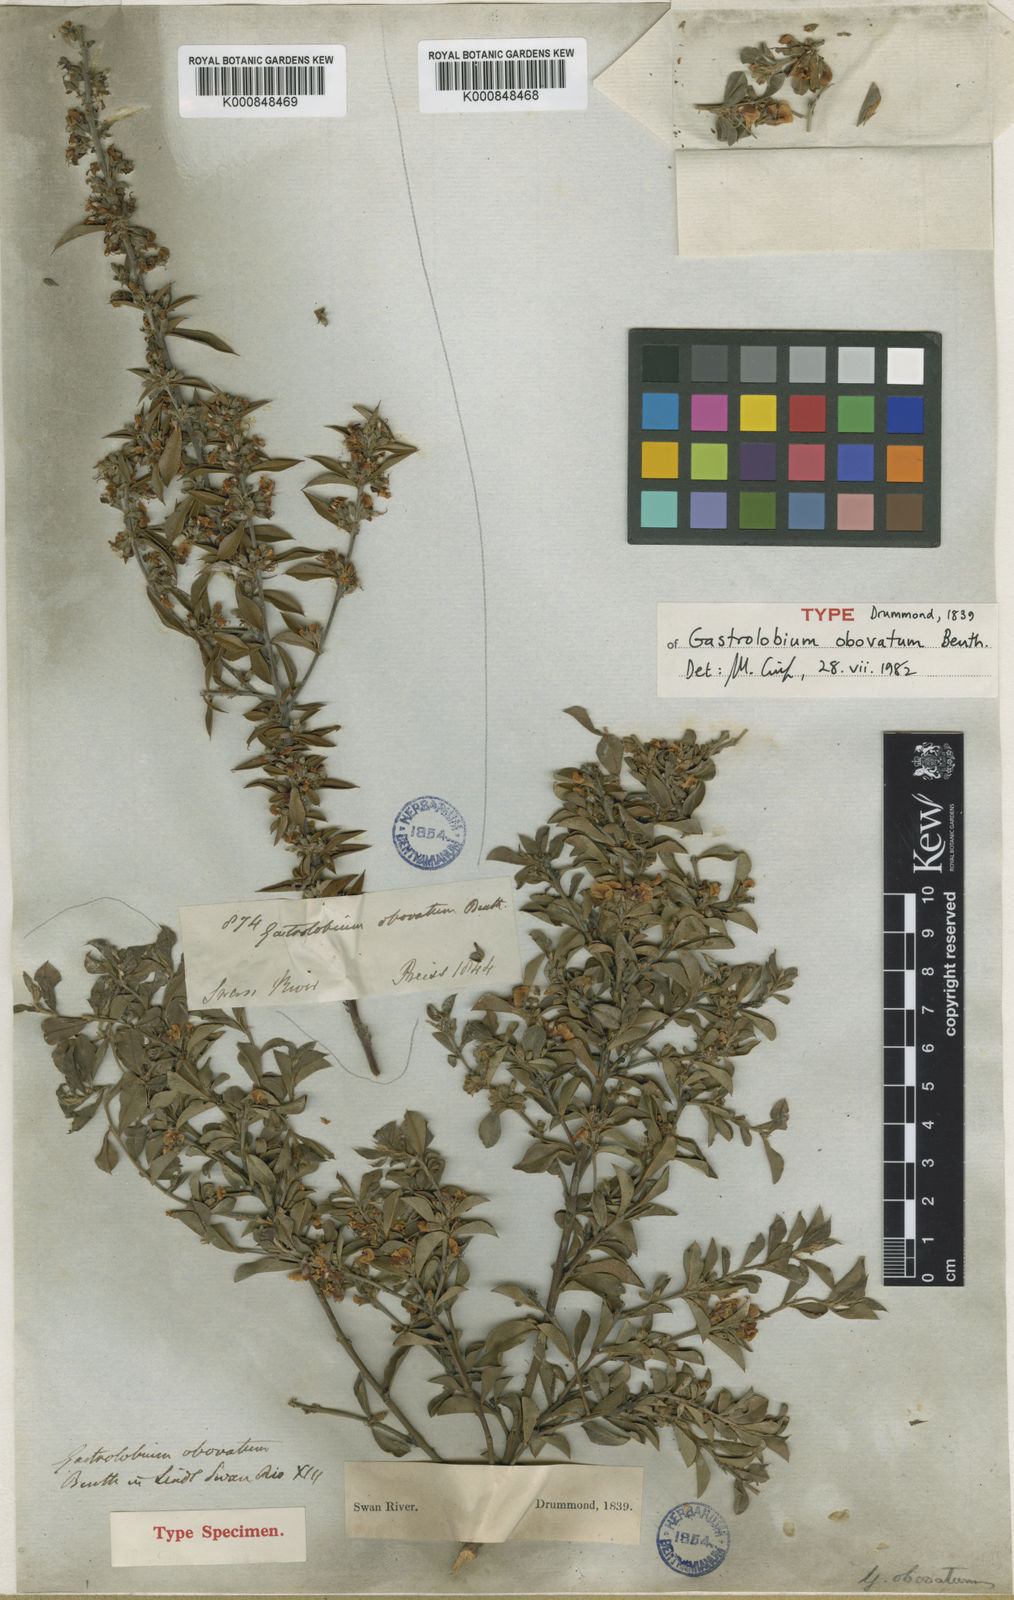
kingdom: Plantae
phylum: Tracheophyta
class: Magnoliopsida
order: Fabales
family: Fabaceae
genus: Gastrolobium
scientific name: Gastrolobium obovatum
